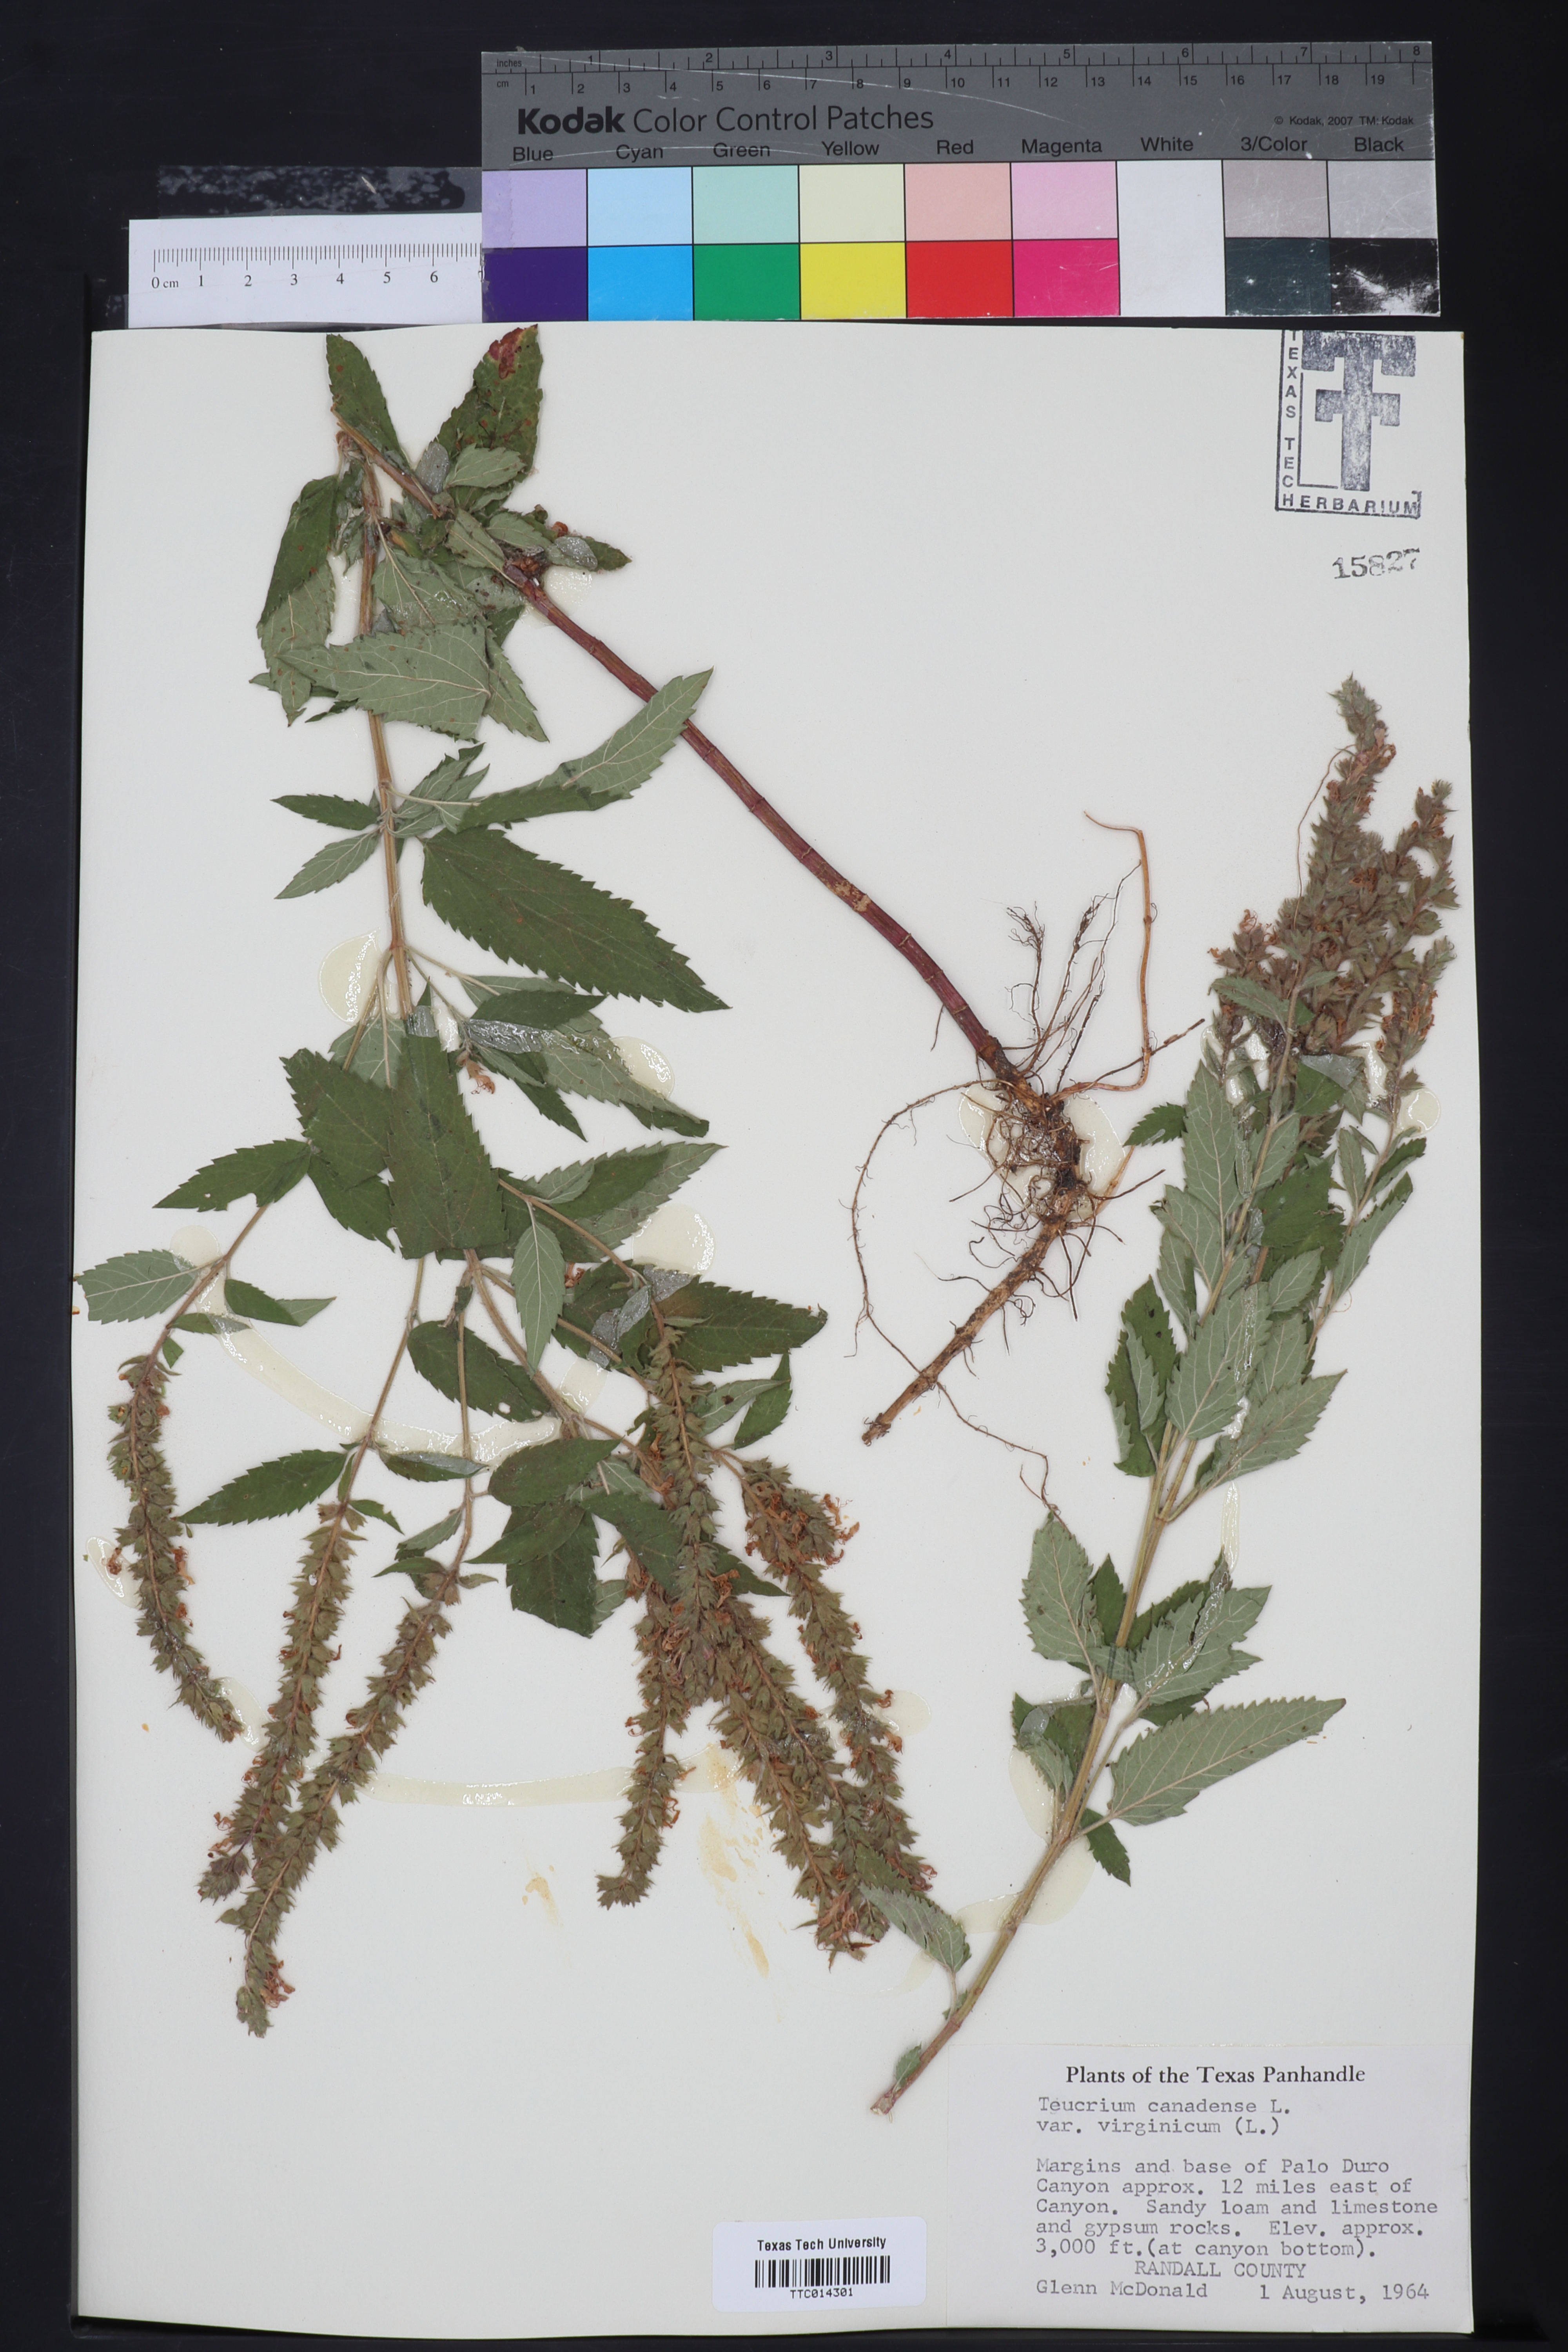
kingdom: Plantae
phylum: Tracheophyta
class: Magnoliopsida
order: Lamiales
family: Lamiaceae
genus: Teucrium
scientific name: Teucrium canadense
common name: American germander
